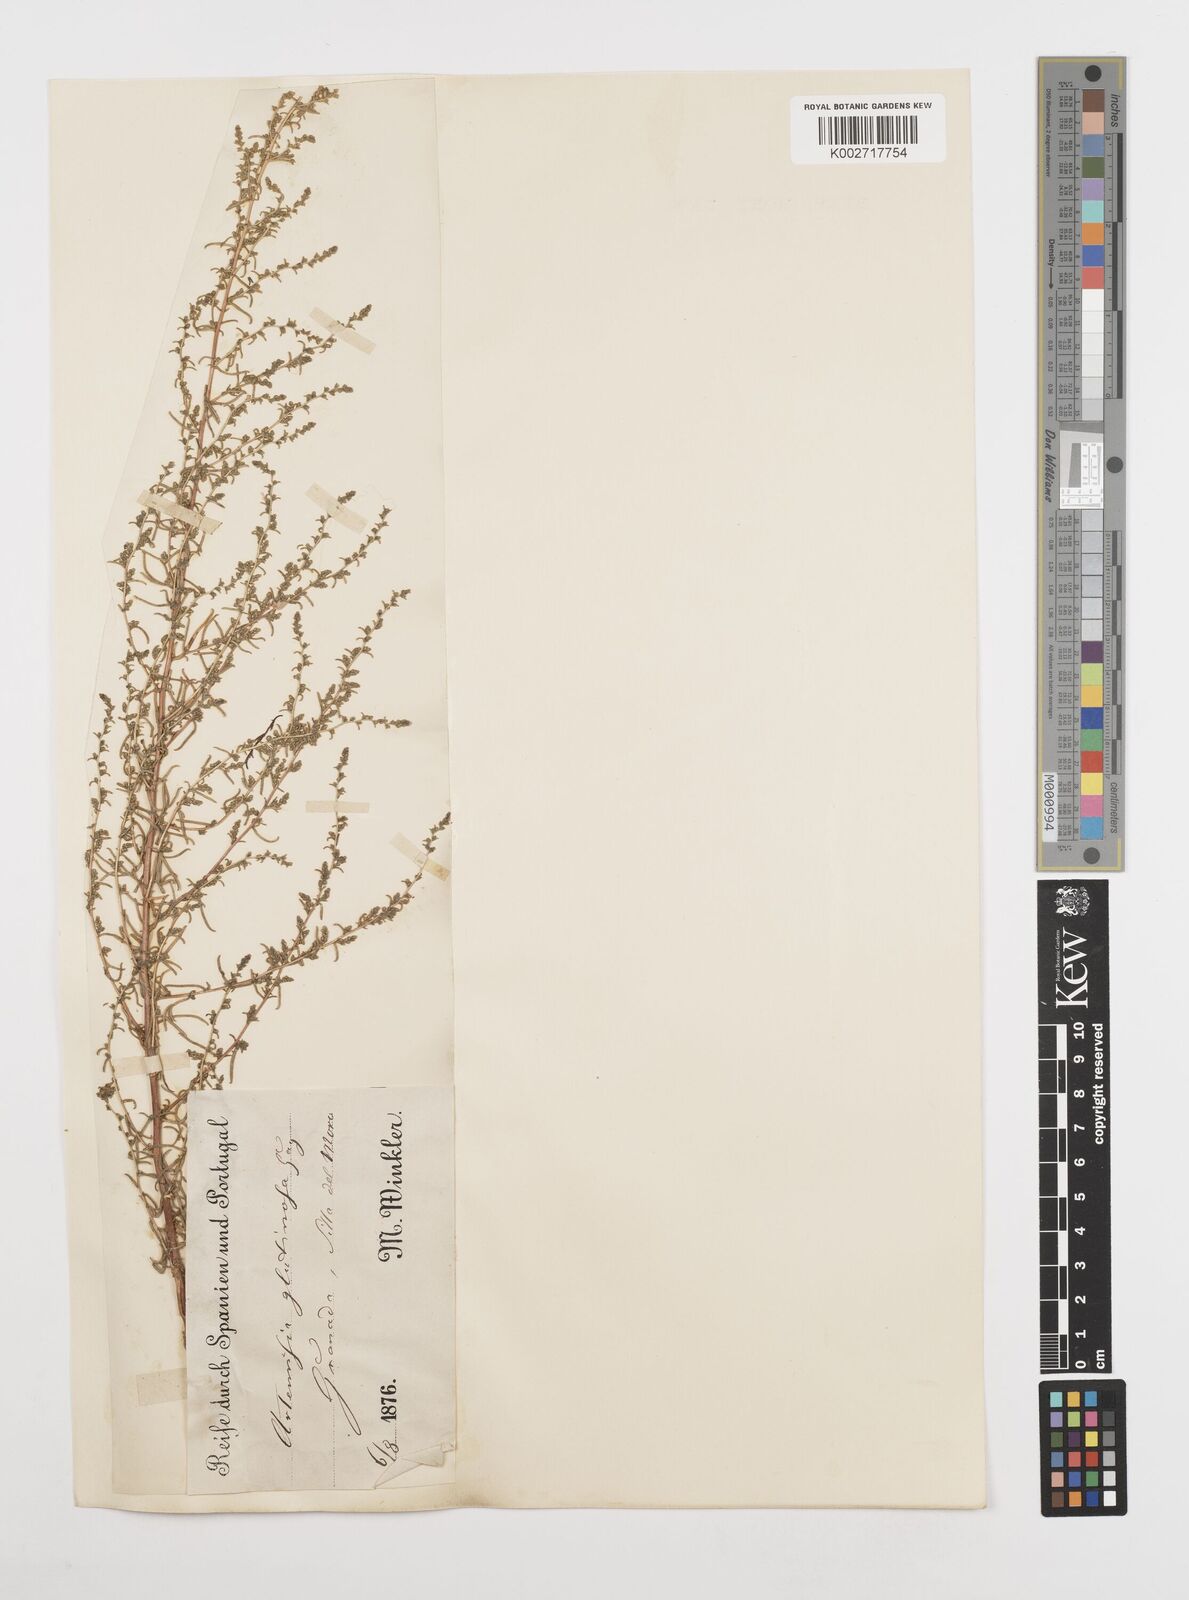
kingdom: Plantae
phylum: Tracheophyta
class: Magnoliopsida
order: Asterales
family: Asteraceae
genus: Artemisia
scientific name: Artemisia campestris
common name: Field wormwood
